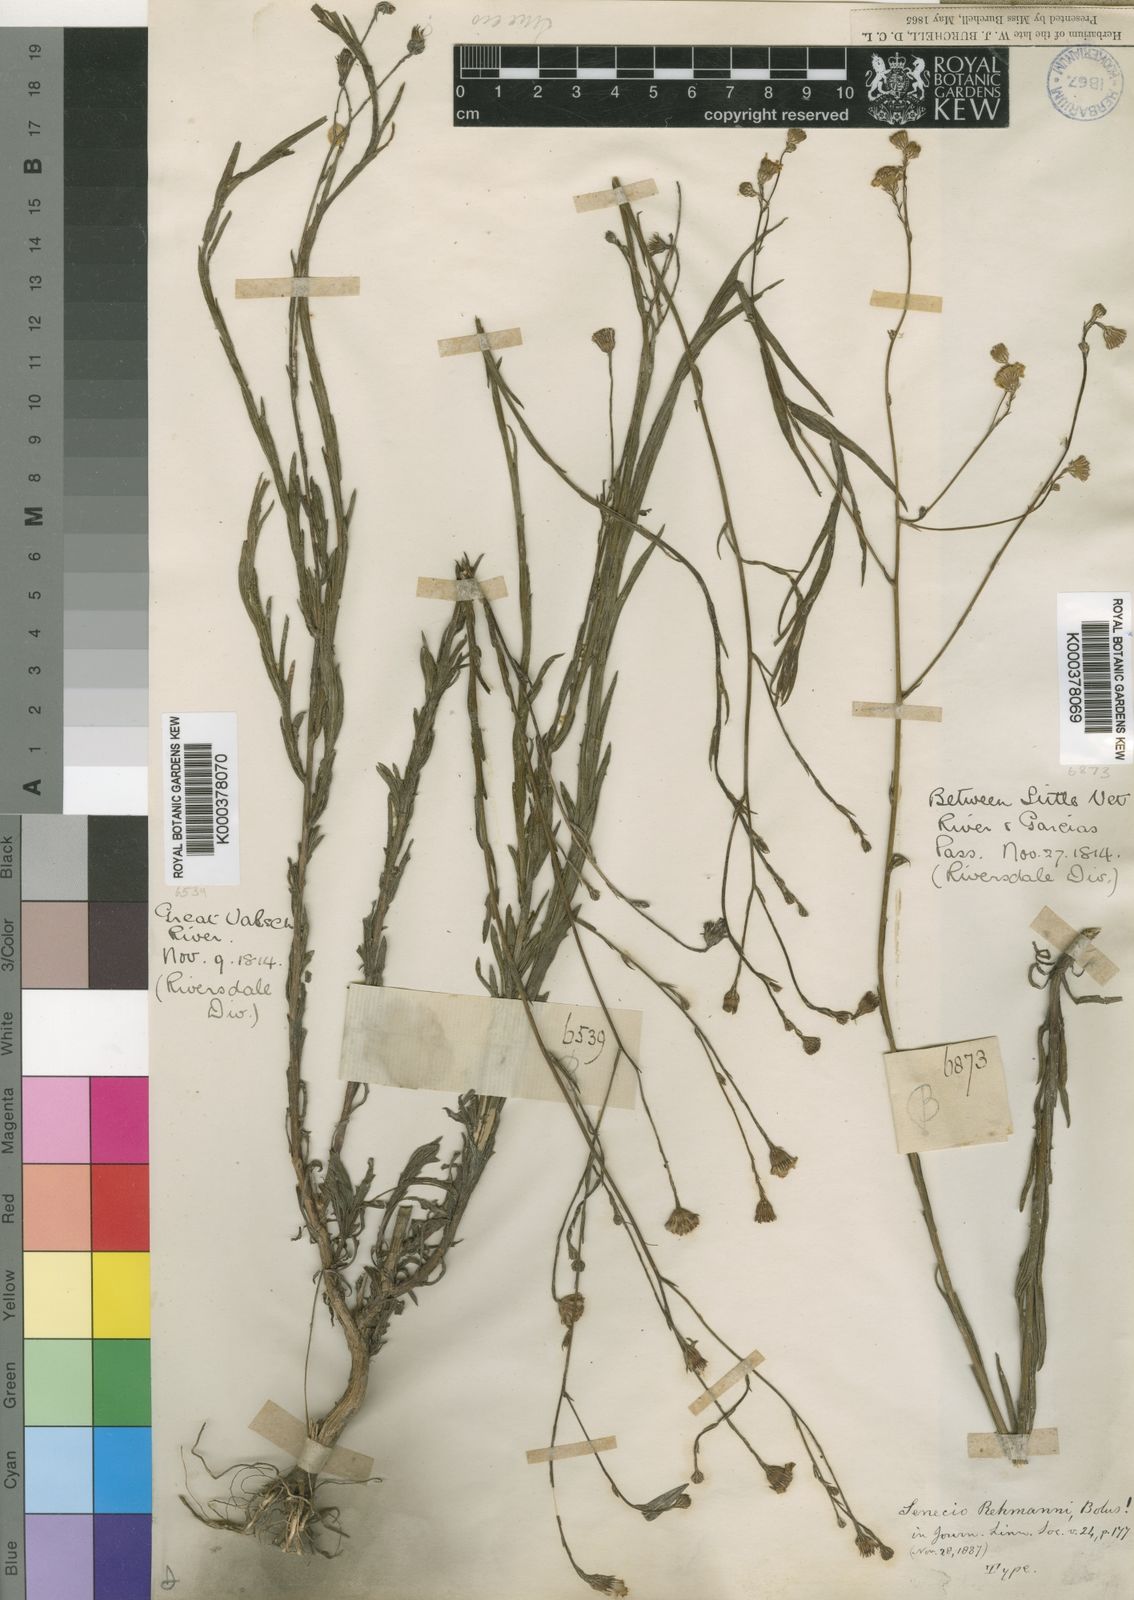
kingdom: Plantae
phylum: Tracheophyta
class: Magnoliopsida
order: Asterales
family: Asteraceae
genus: Senecio
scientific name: Senecio rehmannii
